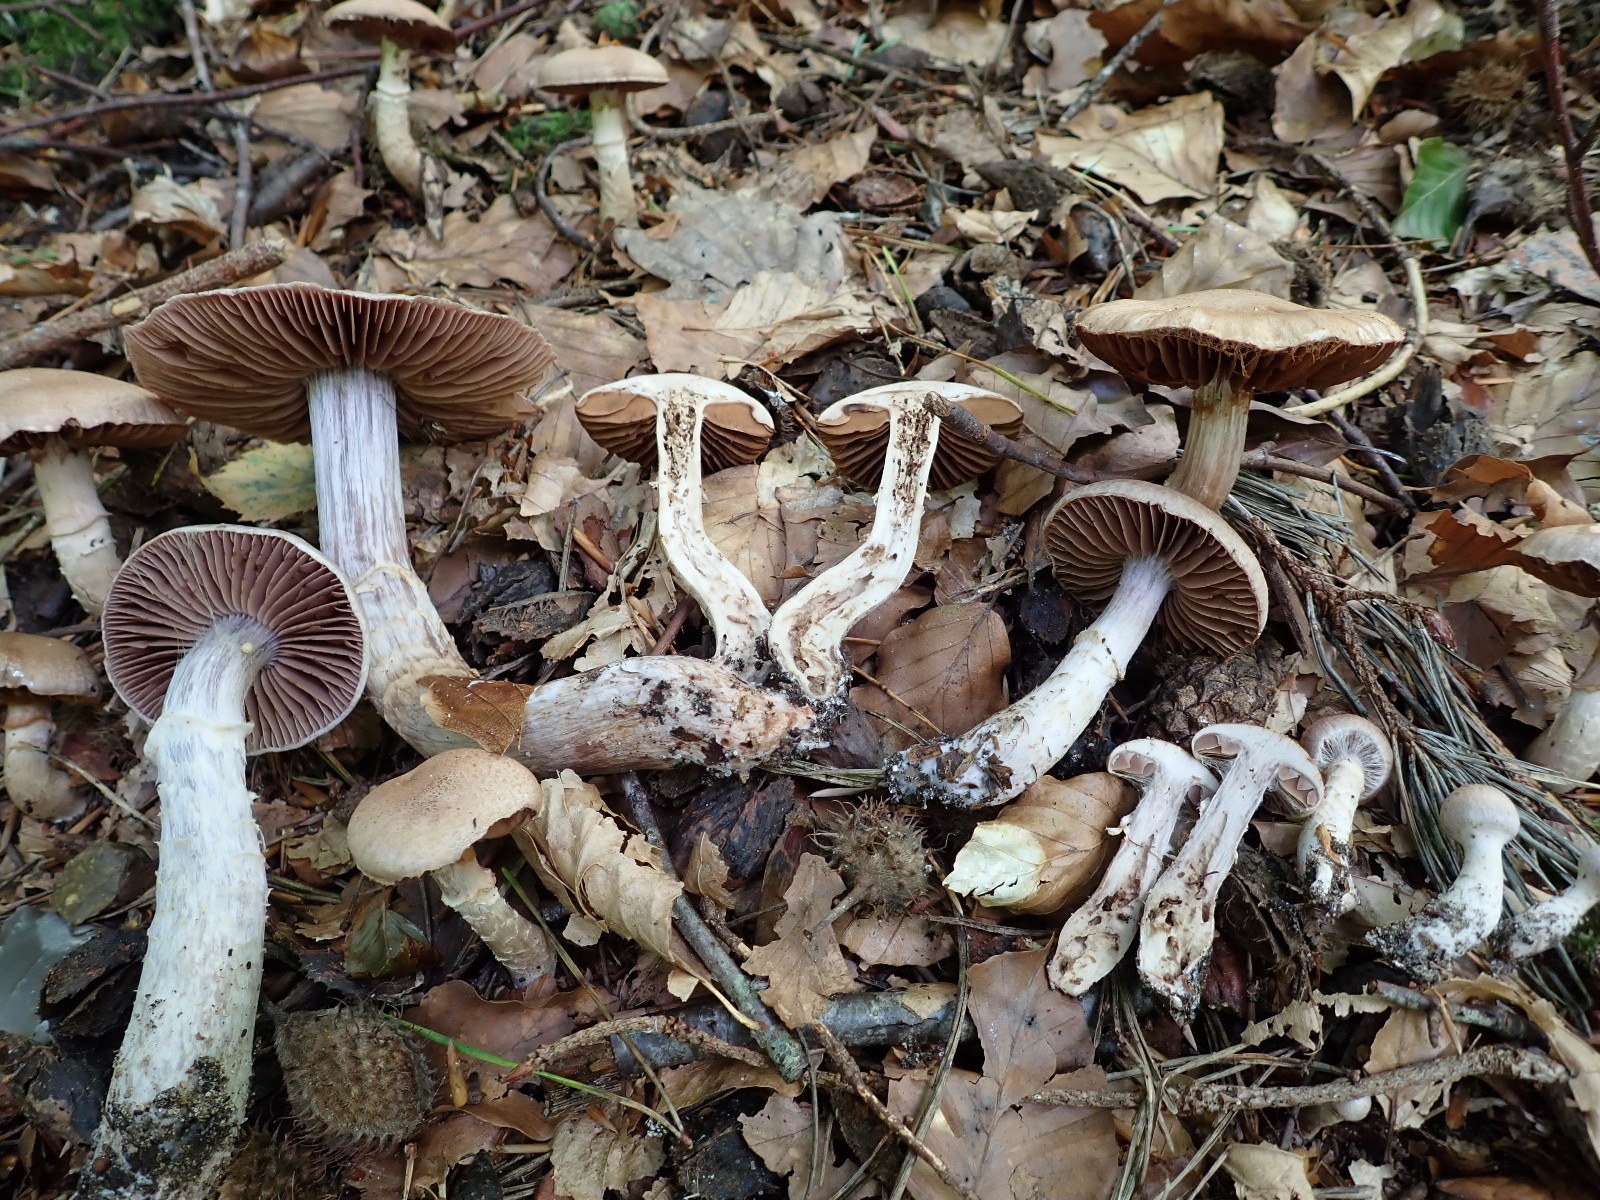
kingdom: Fungi
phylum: Basidiomycota
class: Agaricomycetes
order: Agaricales
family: Cortinariaceae
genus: Cortinarius
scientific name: Cortinarius torvus
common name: champignonagtig slørhat
